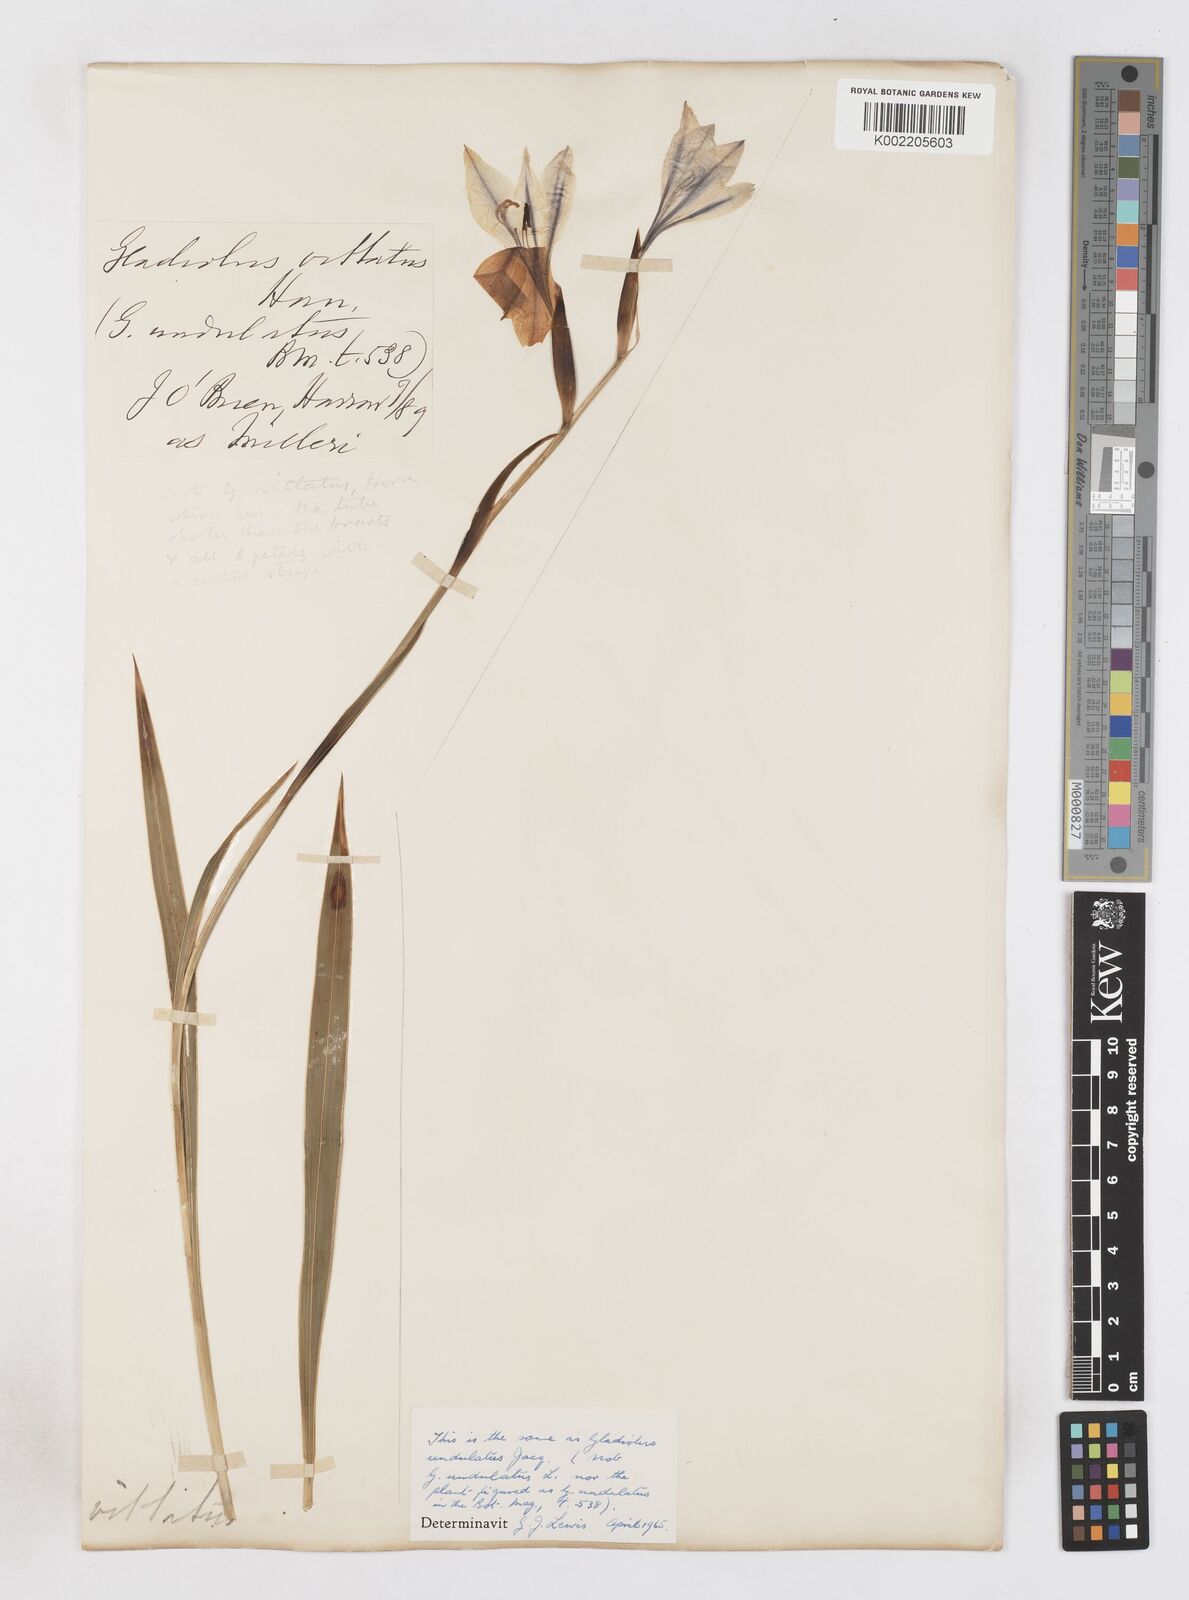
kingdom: Plantae
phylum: Tracheophyta
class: Liliopsida
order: Asparagales
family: Iridaceae
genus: Gladiolus
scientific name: Gladiolus floribundus
